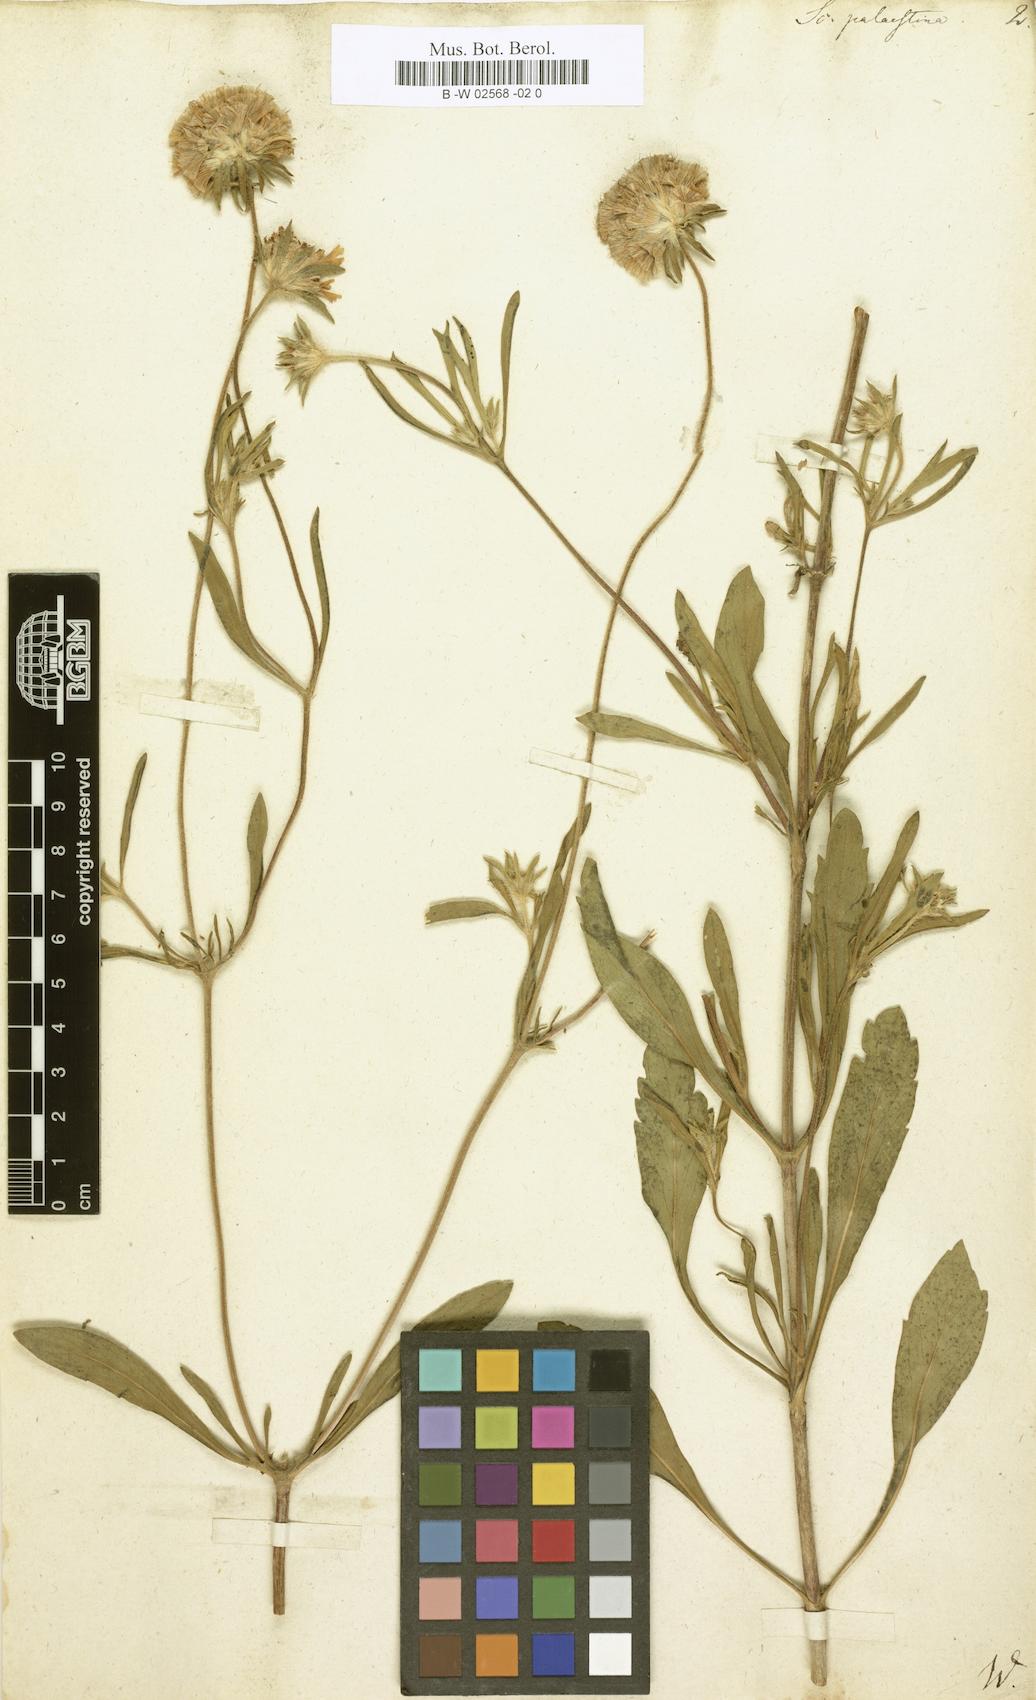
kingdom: Plantae
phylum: Tracheophyta
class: Magnoliopsida
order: Dipsacales
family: Caprifoliaceae
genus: Lomelosia
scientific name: Lomelosia
